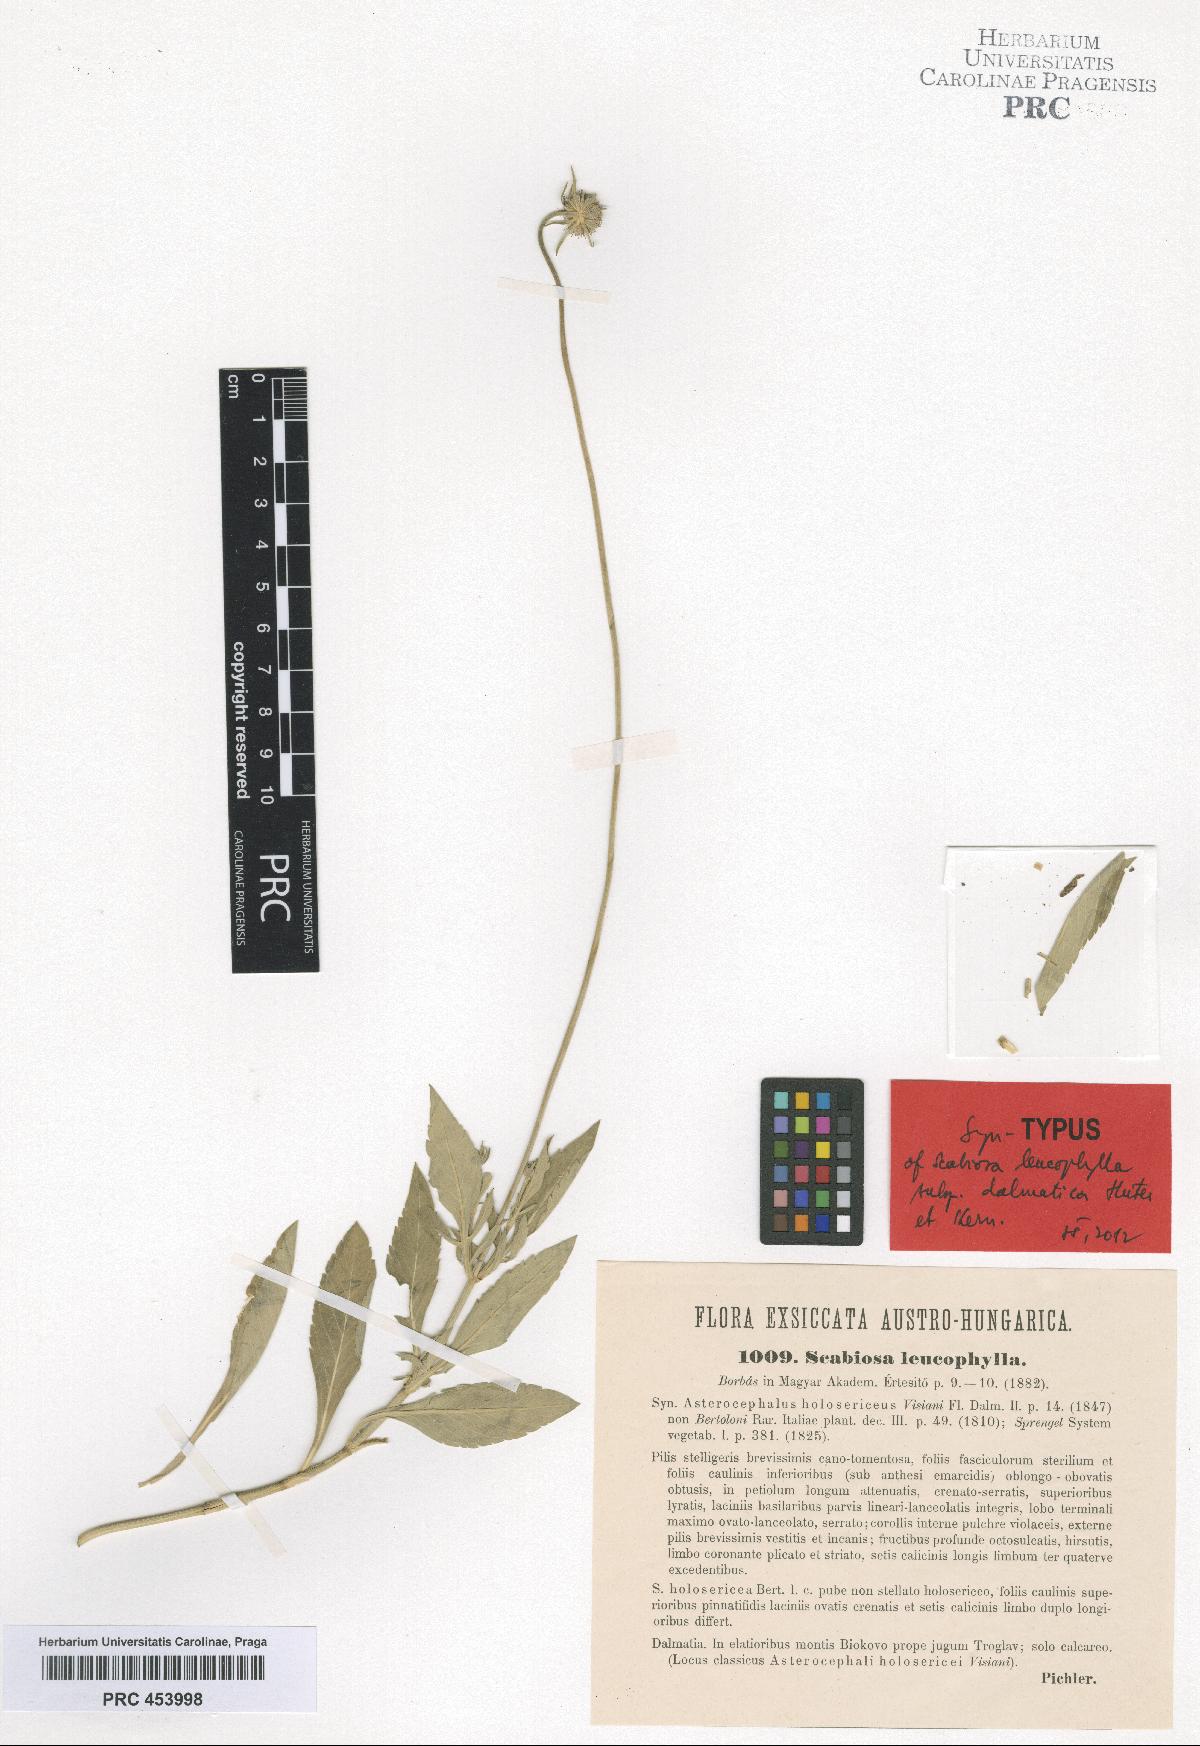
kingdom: Plantae
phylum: Tracheophyta
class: Magnoliopsida
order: Dipsacales
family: Caprifoliaceae
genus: Scabiosa
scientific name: Scabiosa cinerea
